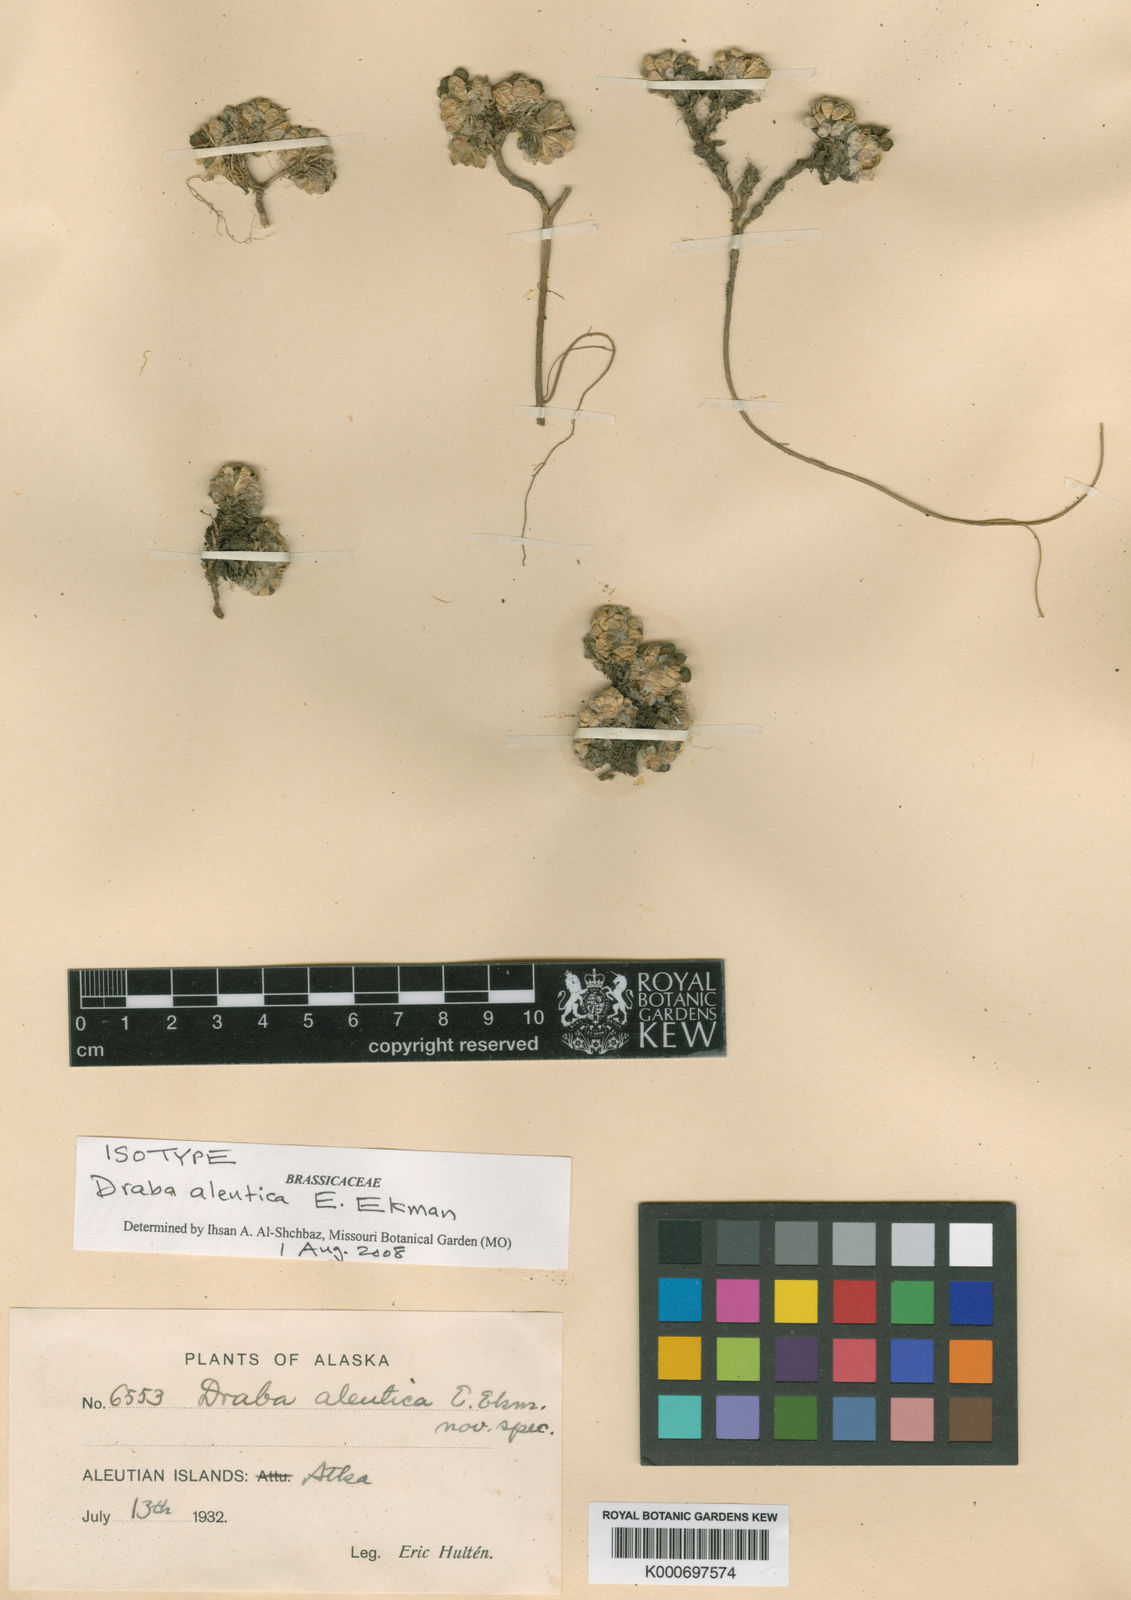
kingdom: Plantae
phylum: Tracheophyta
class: Magnoliopsida
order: Brassicales
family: Brassicaceae
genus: Draba
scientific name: Draba tschuktschorum
